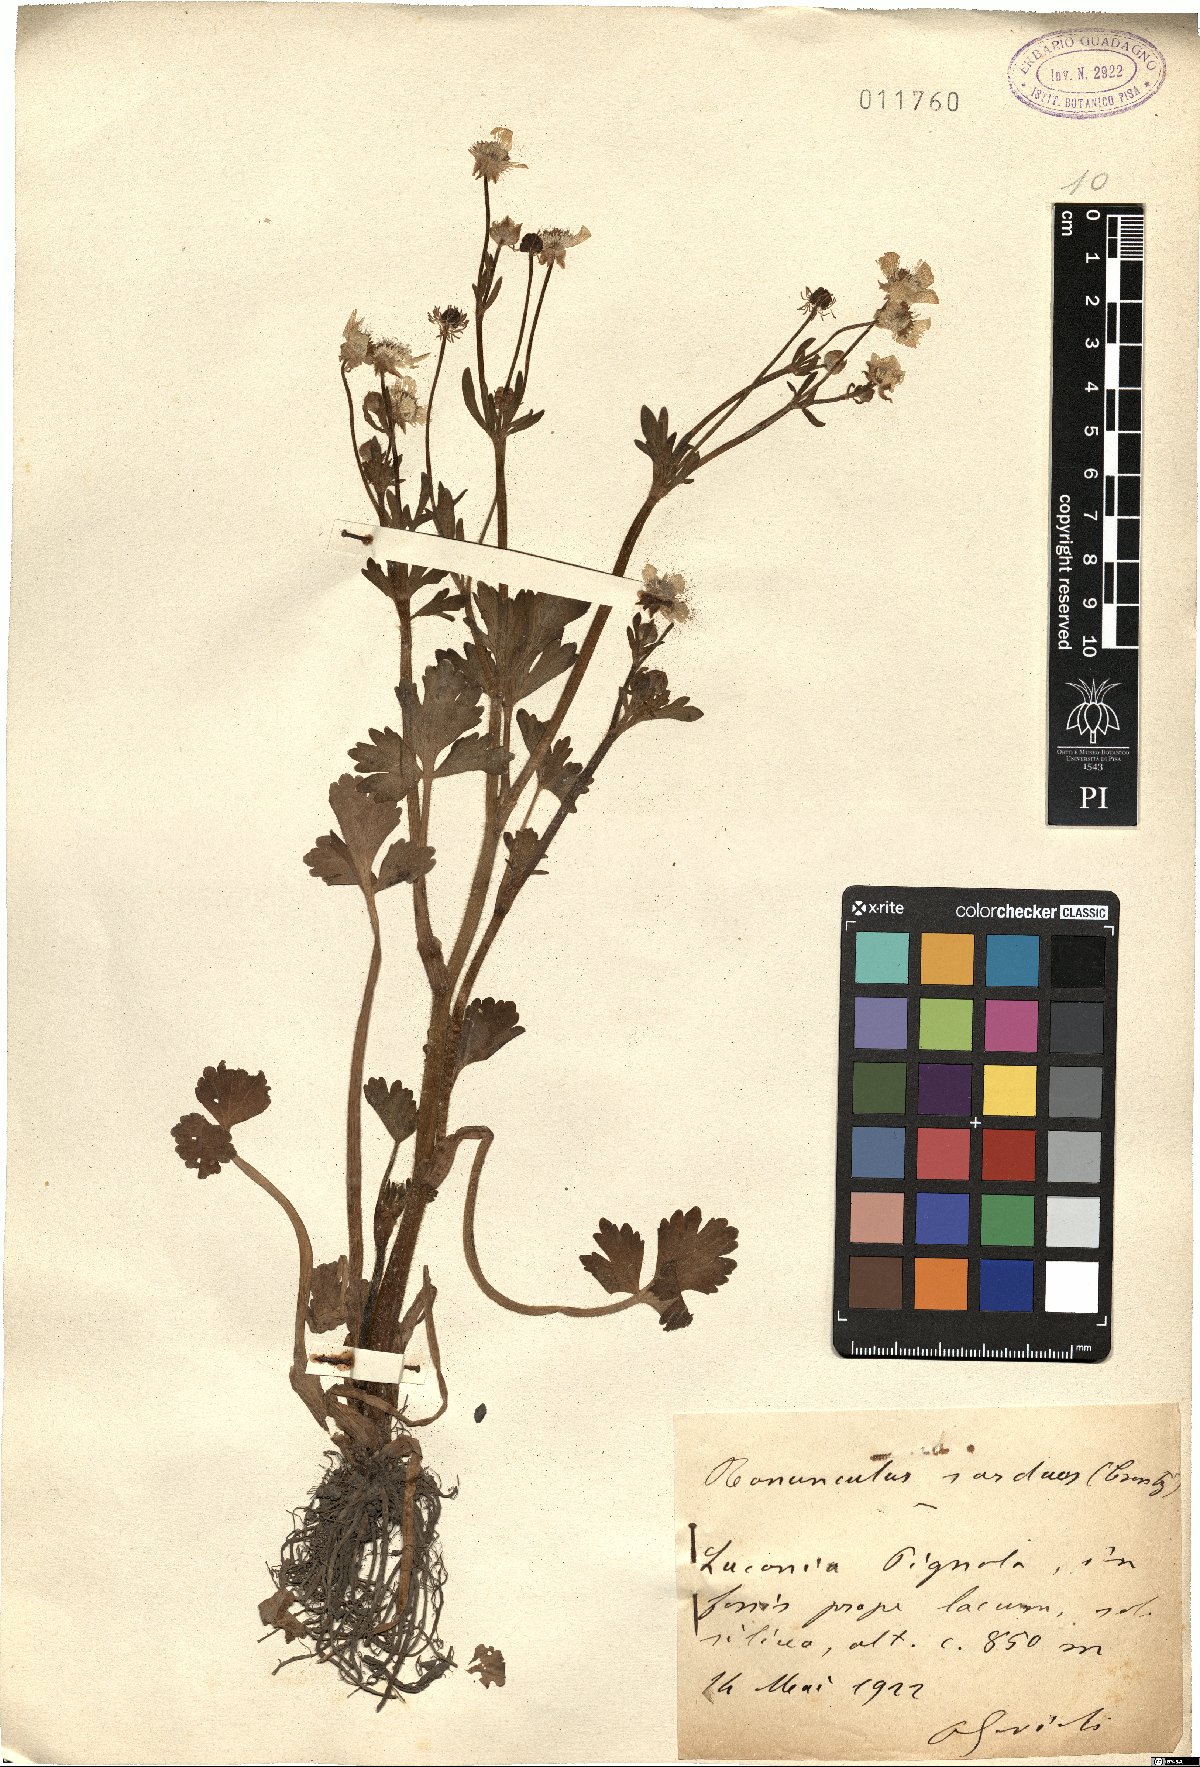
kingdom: Plantae
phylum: Tracheophyta
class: Magnoliopsida
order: Ranunculales
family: Ranunculaceae
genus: Ranunculus
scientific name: Ranunculus sardous
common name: Hairy buttercup
